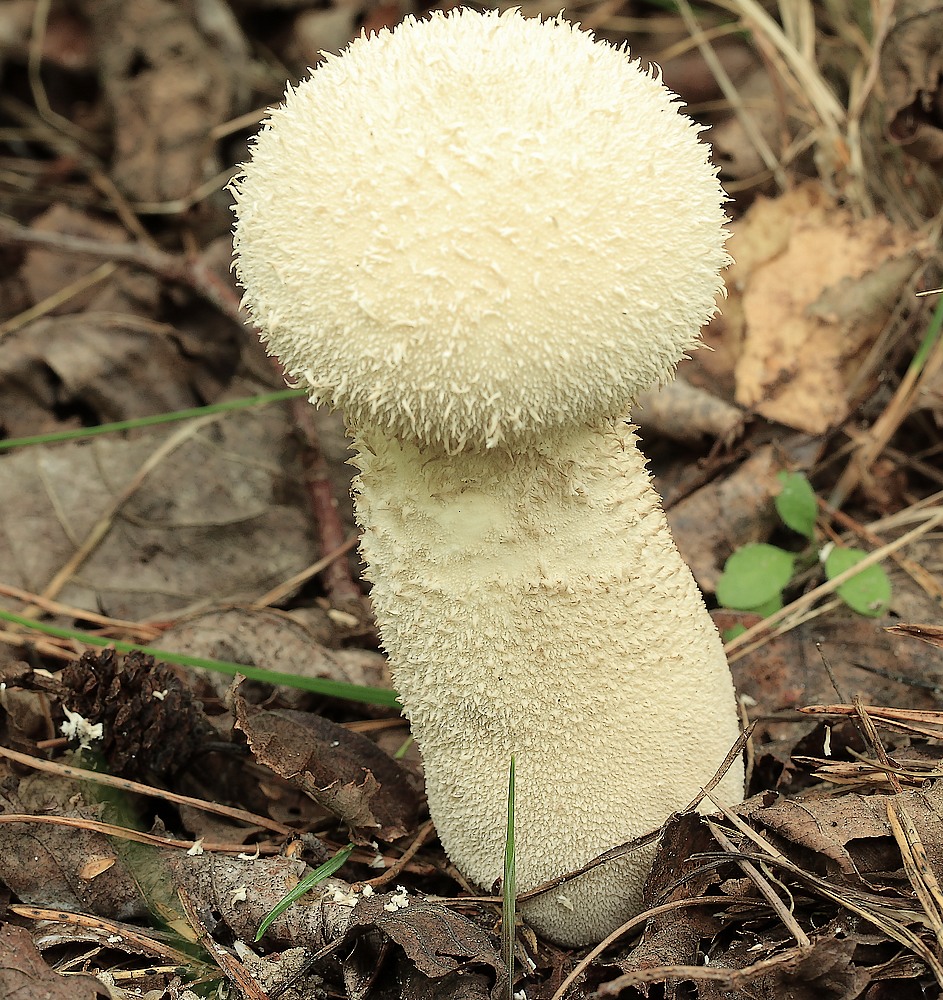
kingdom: Fungi
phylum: Basidiomycota
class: Agaricomycetes
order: Agaricales
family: Lycoperdaceae
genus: Lycoperdon
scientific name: Lycoperdon excipuliforme
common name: højstokket støvbold
